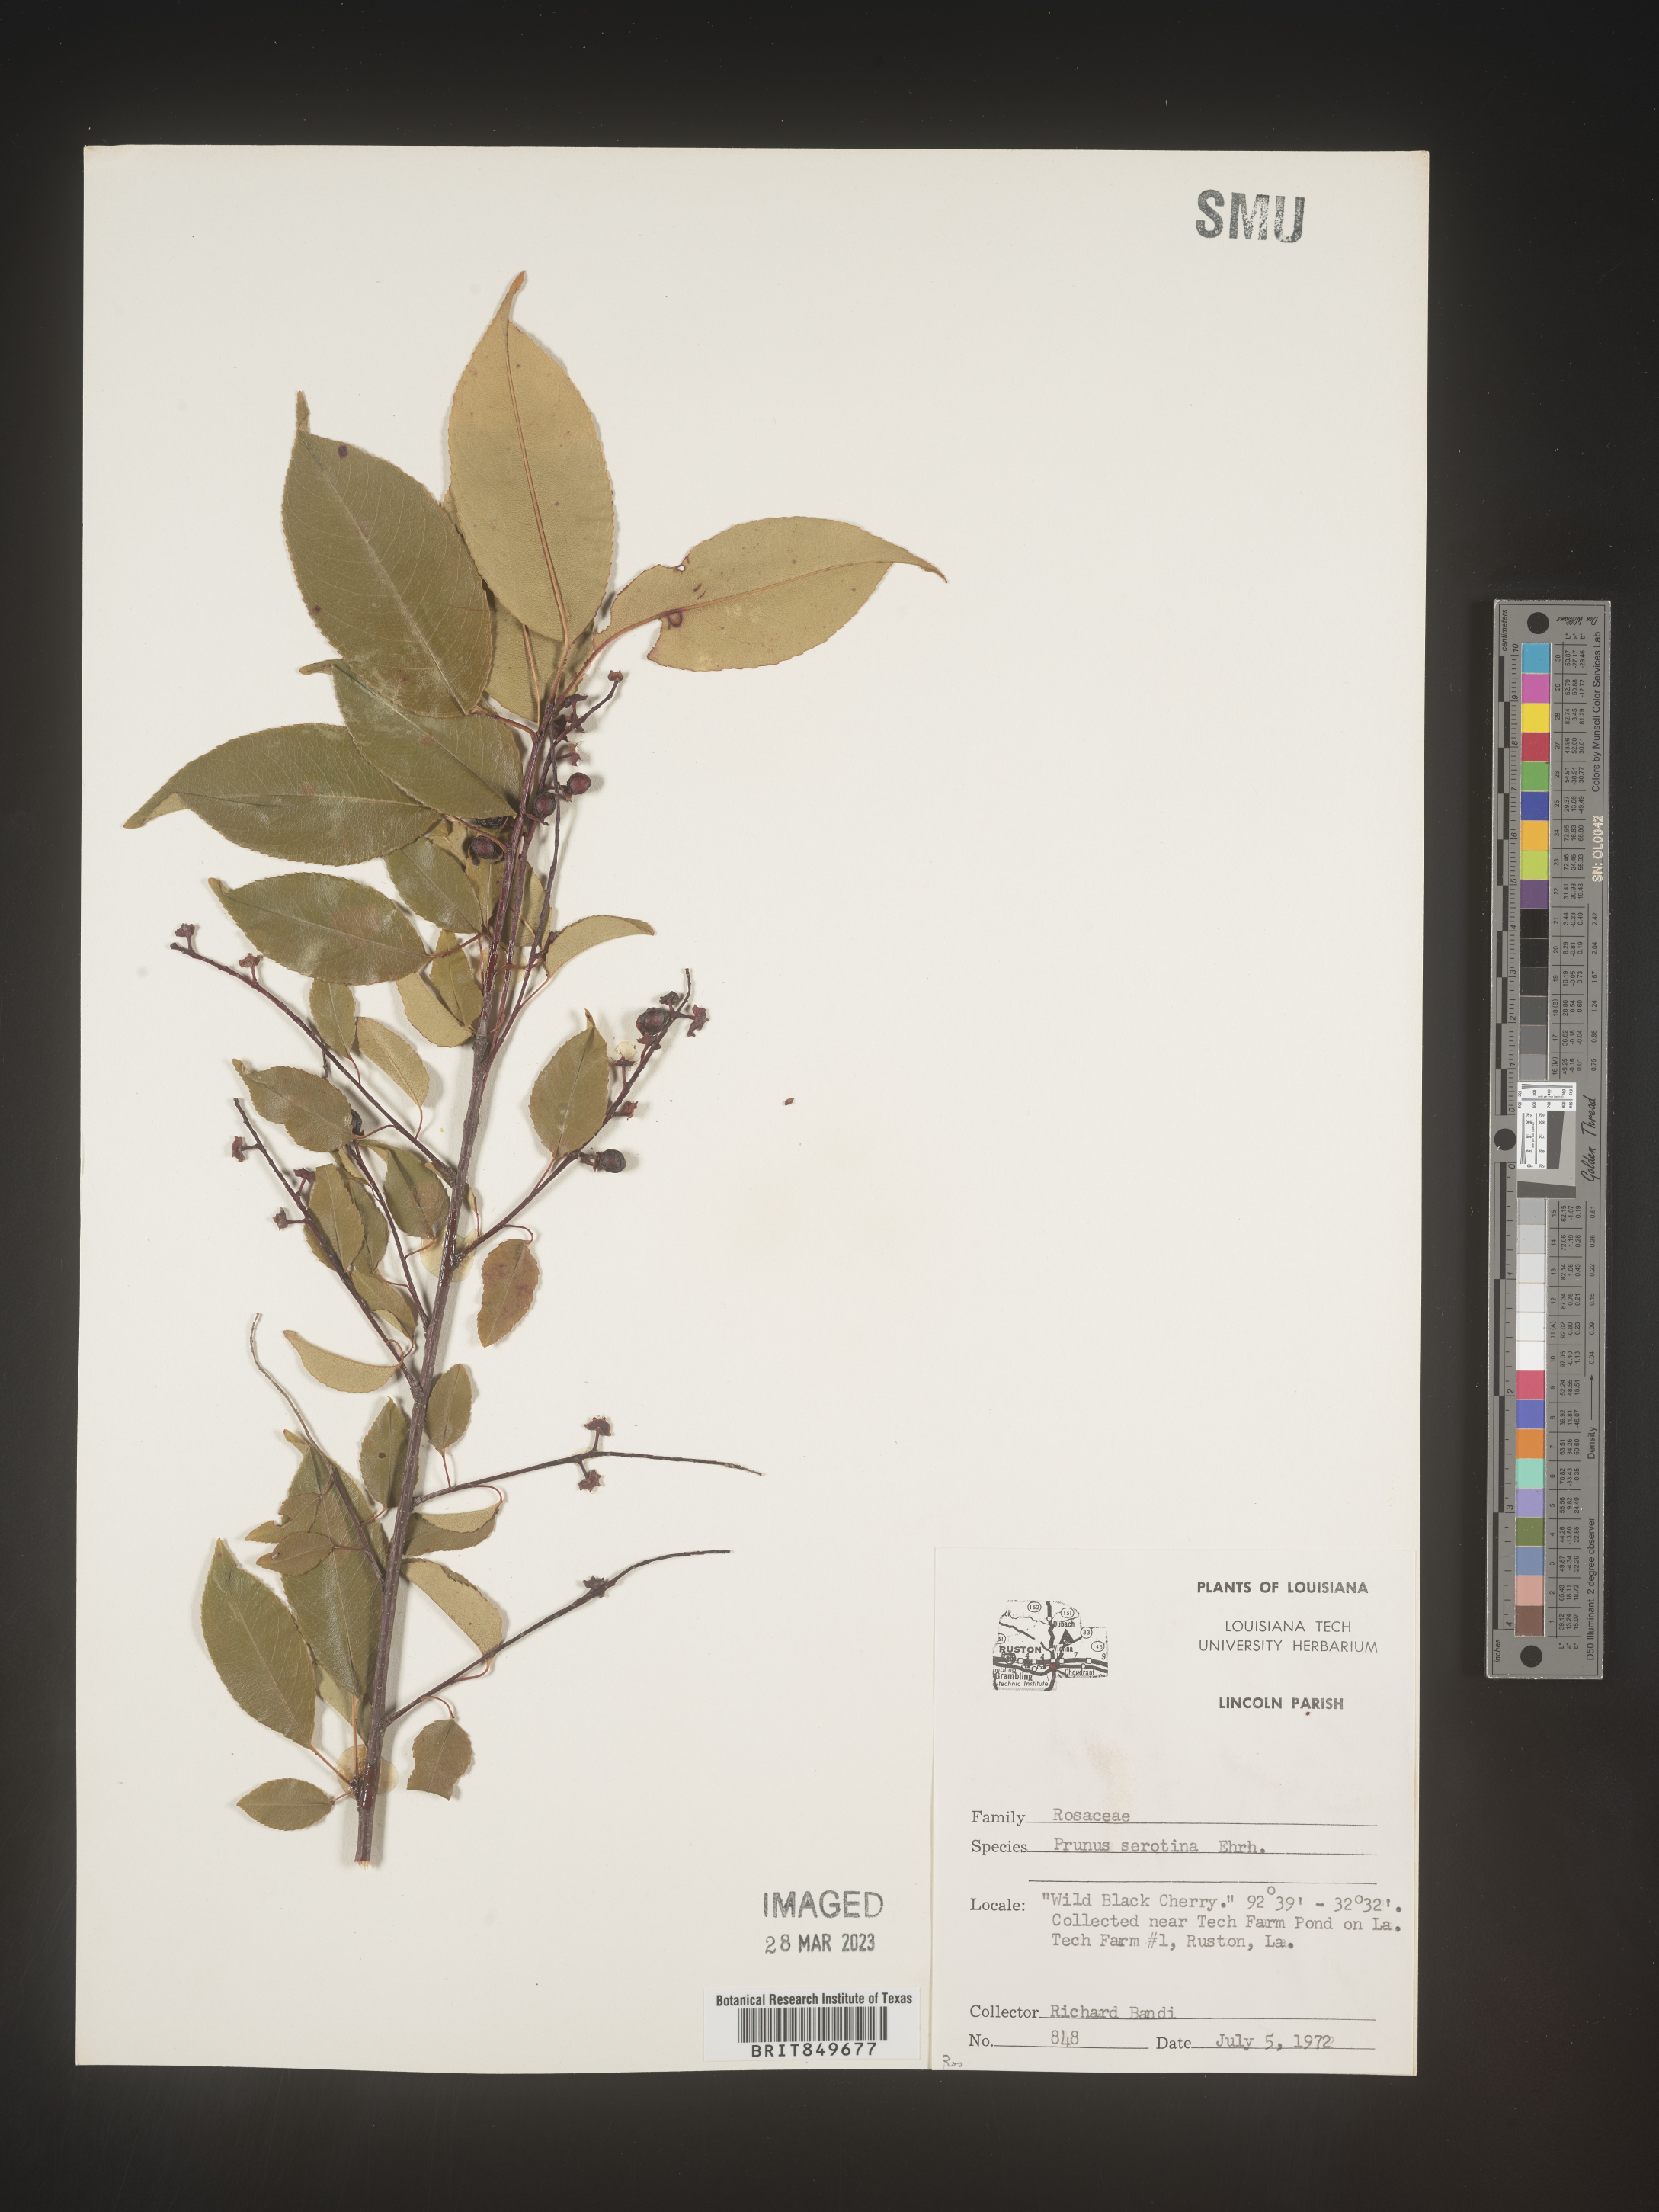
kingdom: Plantae
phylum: Tracheophyta
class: Magnoliopsida
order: Rosales
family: Rosaceae
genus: Prunus
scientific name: Prunus serotina
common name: Black cherry
